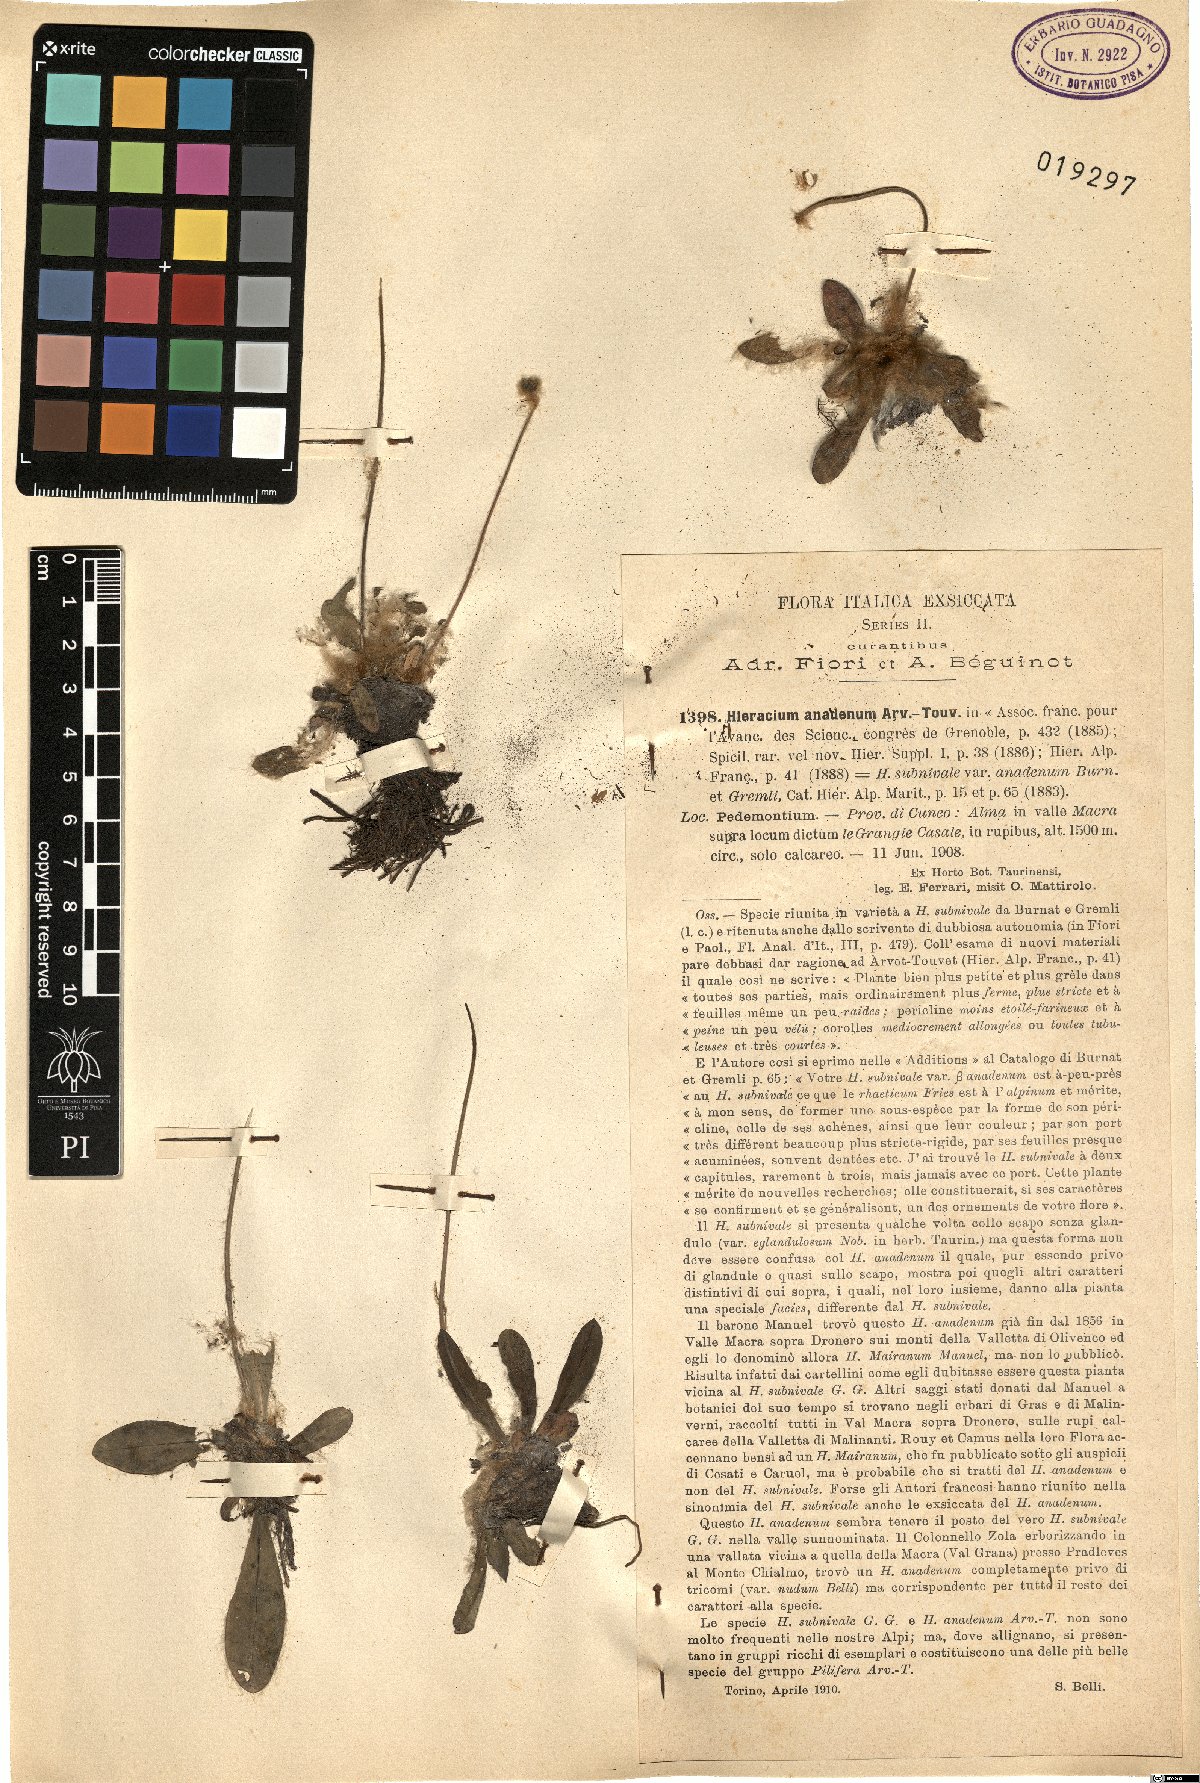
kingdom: Plantae
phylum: Tracheophyta
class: Magnoliopsida
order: Asterales
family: Asteraceae
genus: Hieracium
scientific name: Hieracium piliferum
